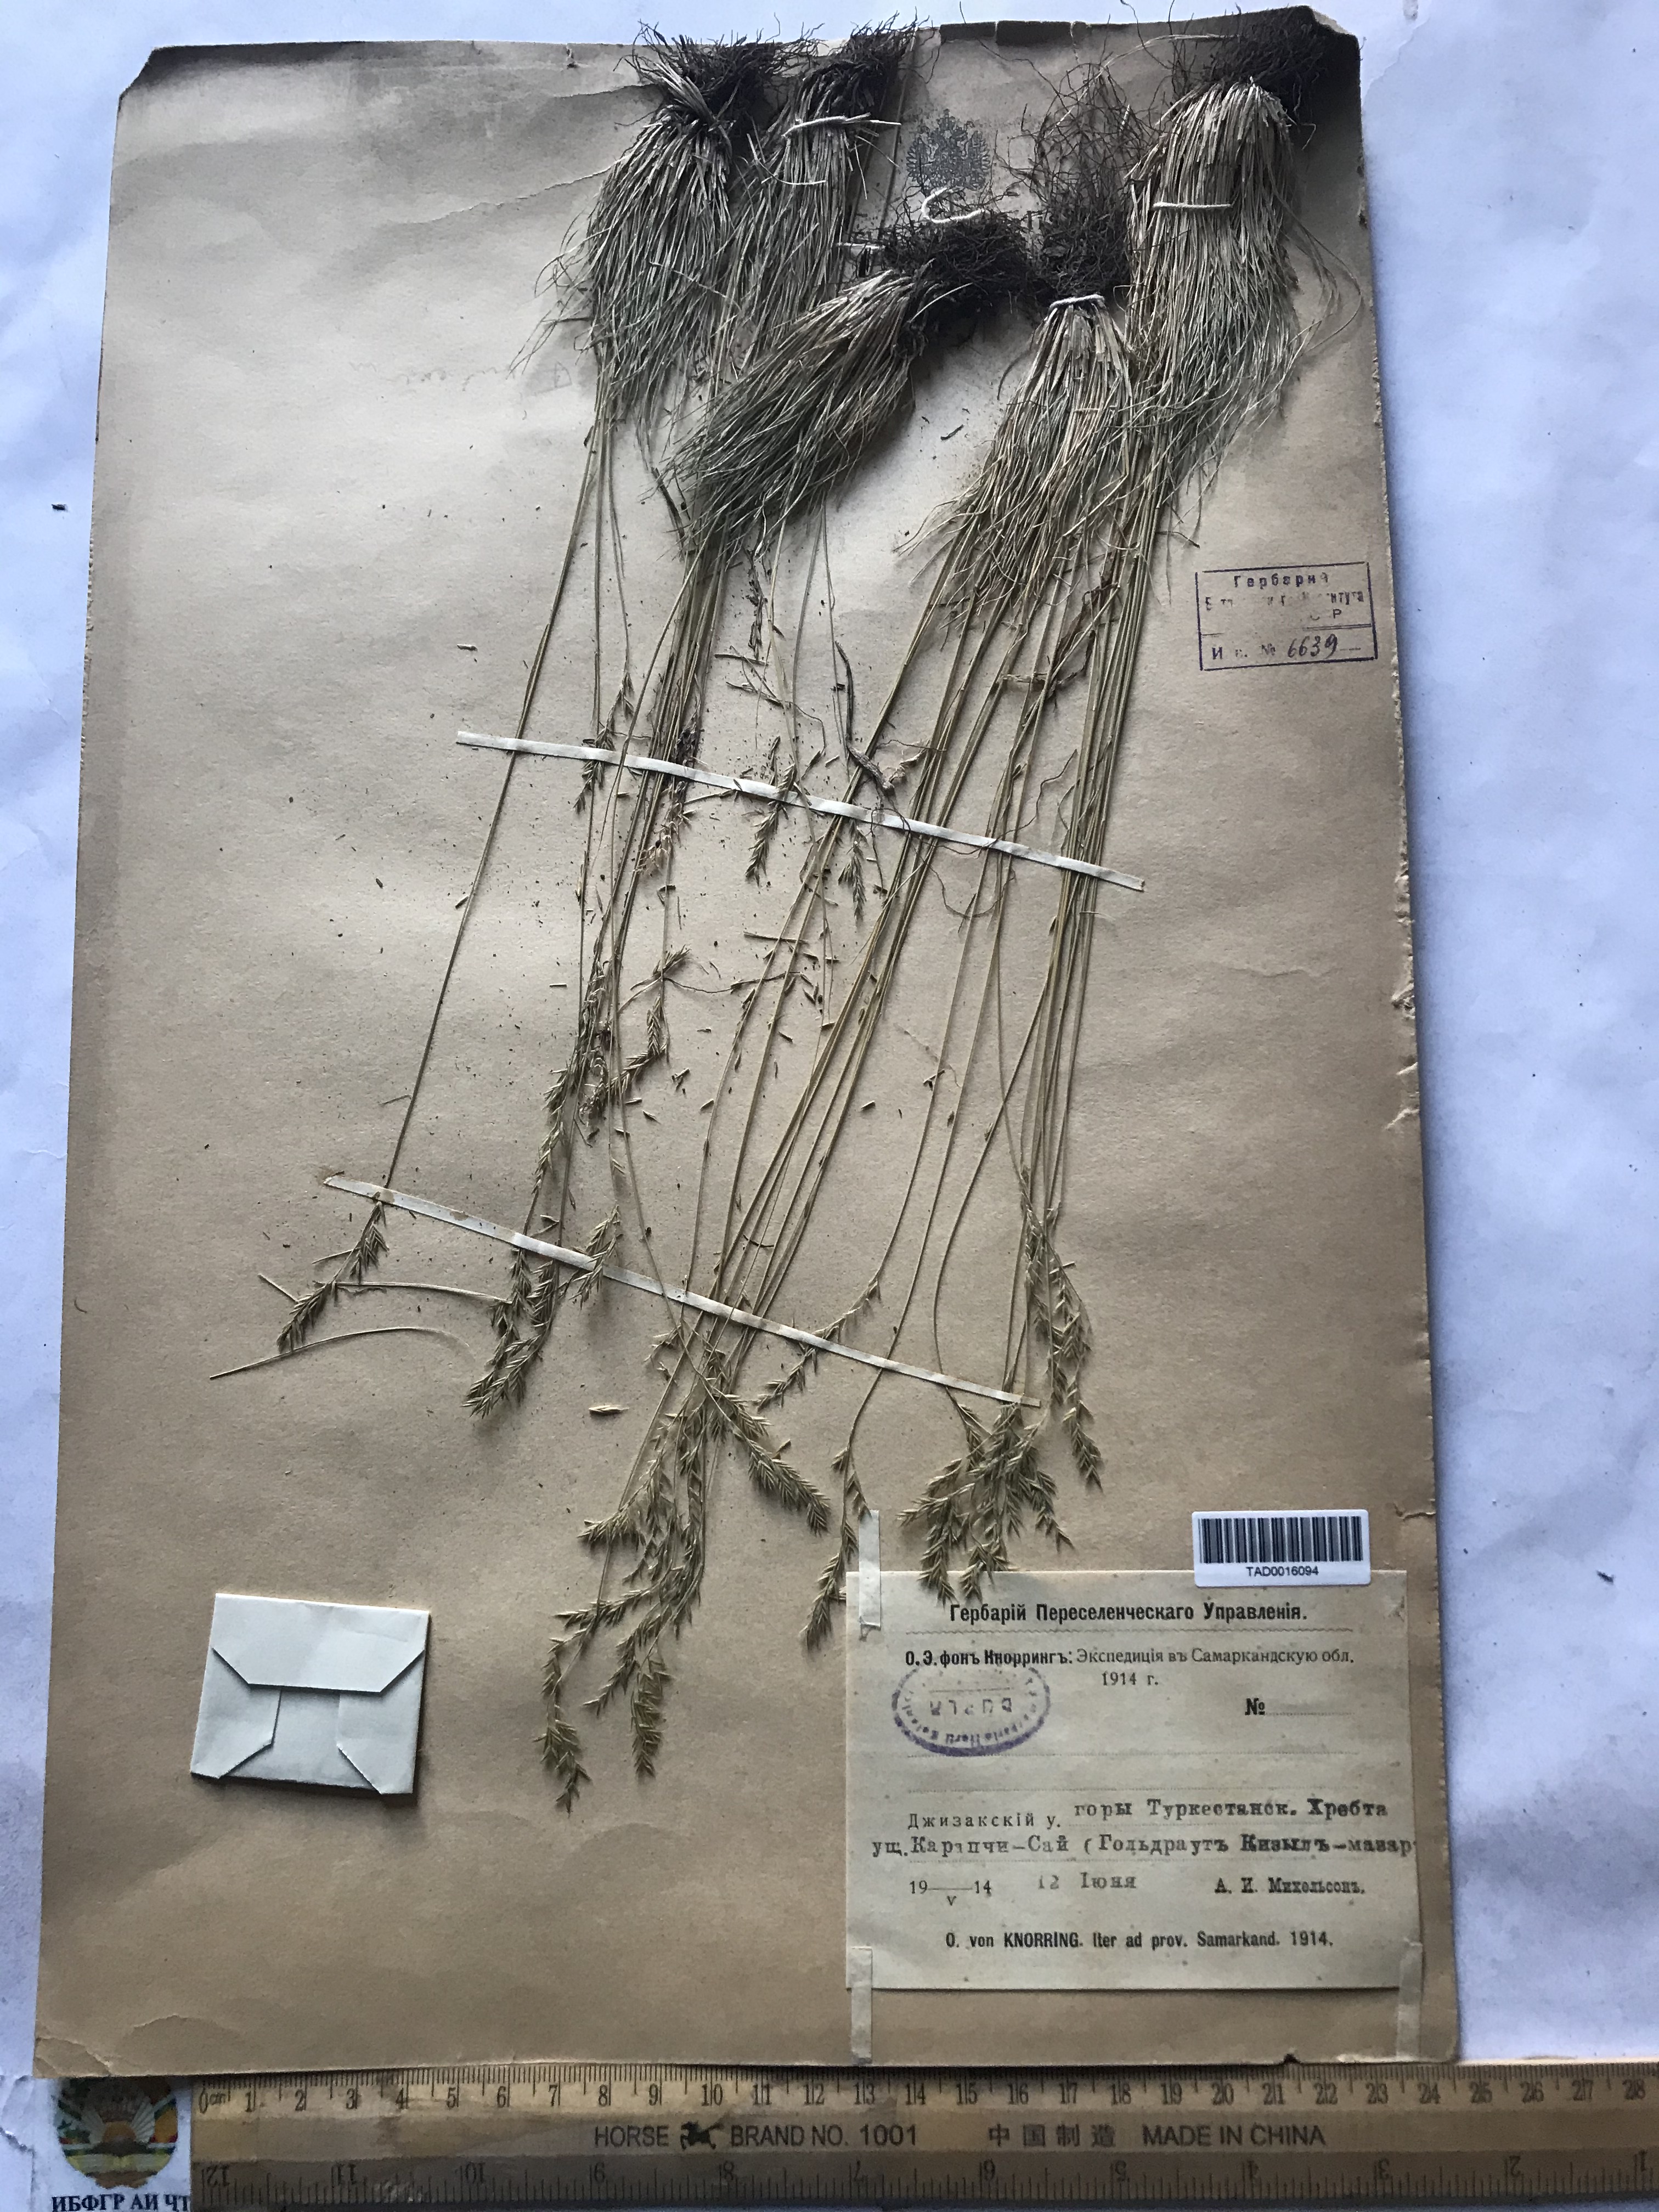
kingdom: Plantae
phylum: Tracheophyta
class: Liliopsida
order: Poales
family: Poaceae
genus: Festuca
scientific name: Festuca sulcata
